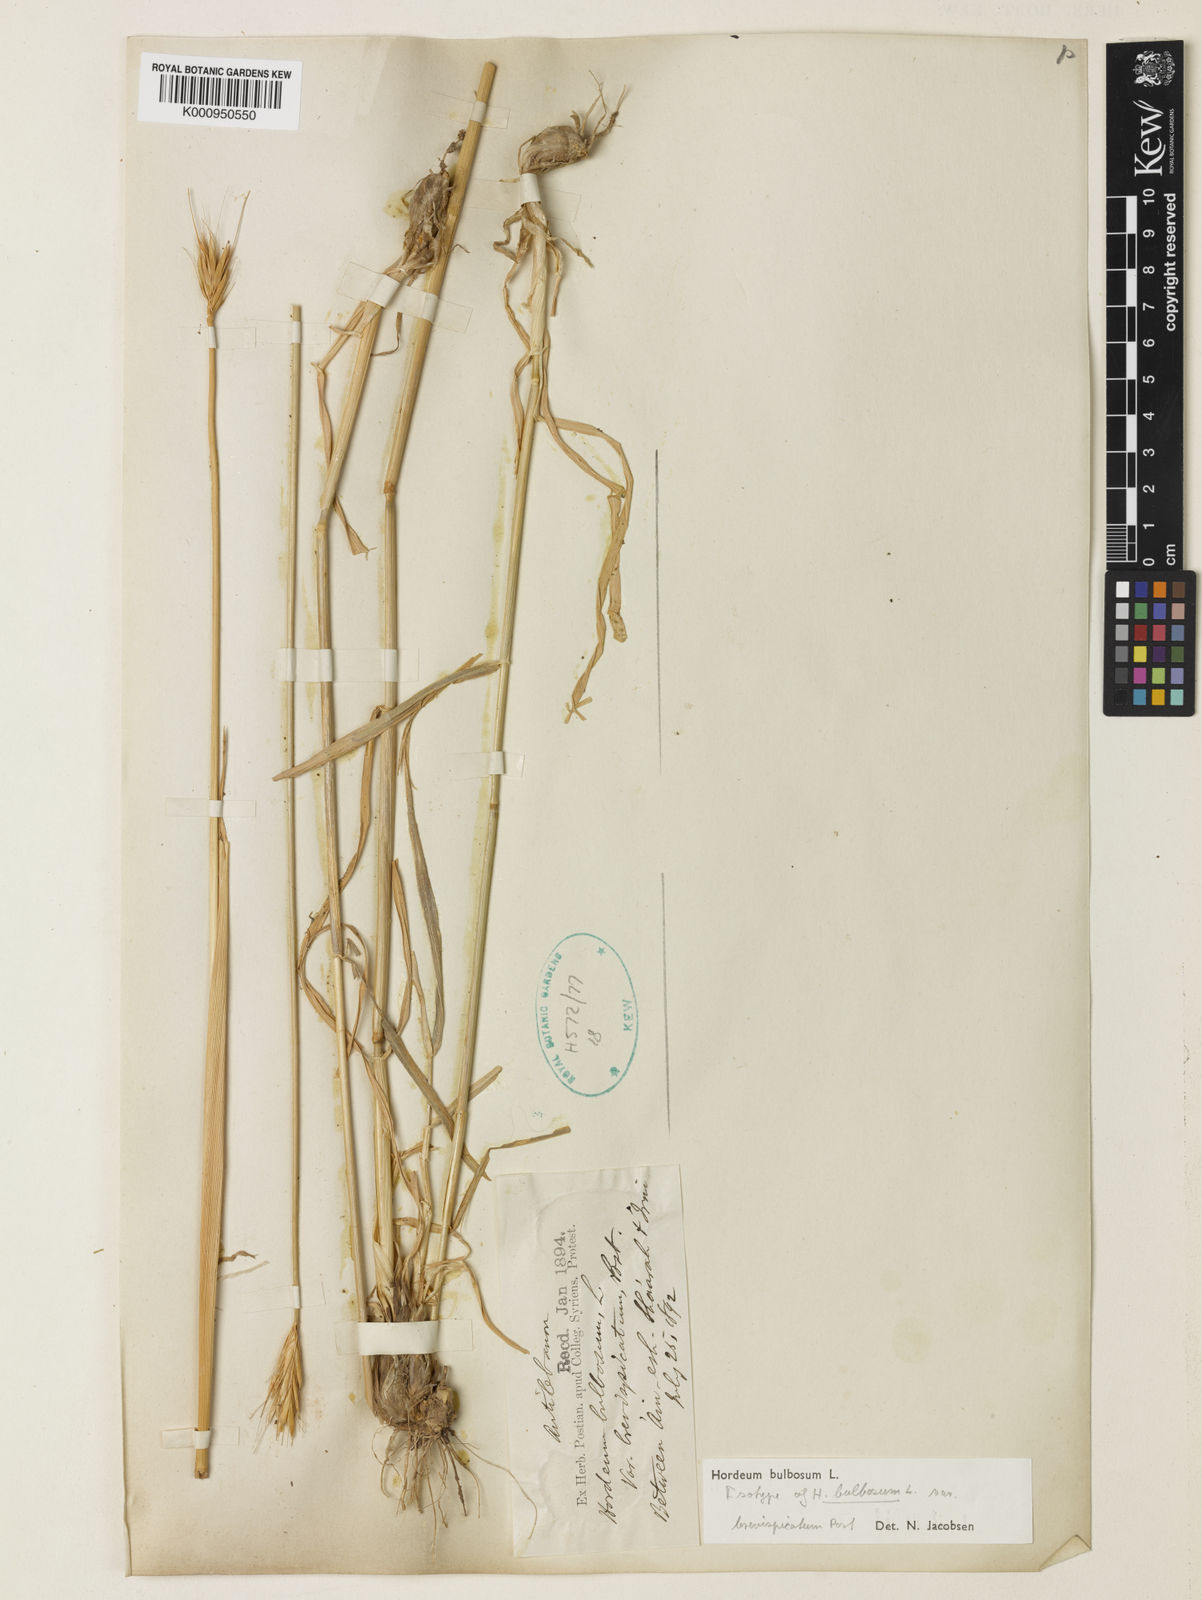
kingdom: Plantae
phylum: Tracheophyta
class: Liliopsida
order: Poales
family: Poaceae
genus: Hordeum
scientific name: Hordeum bulbosum
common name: Bulbous barley
